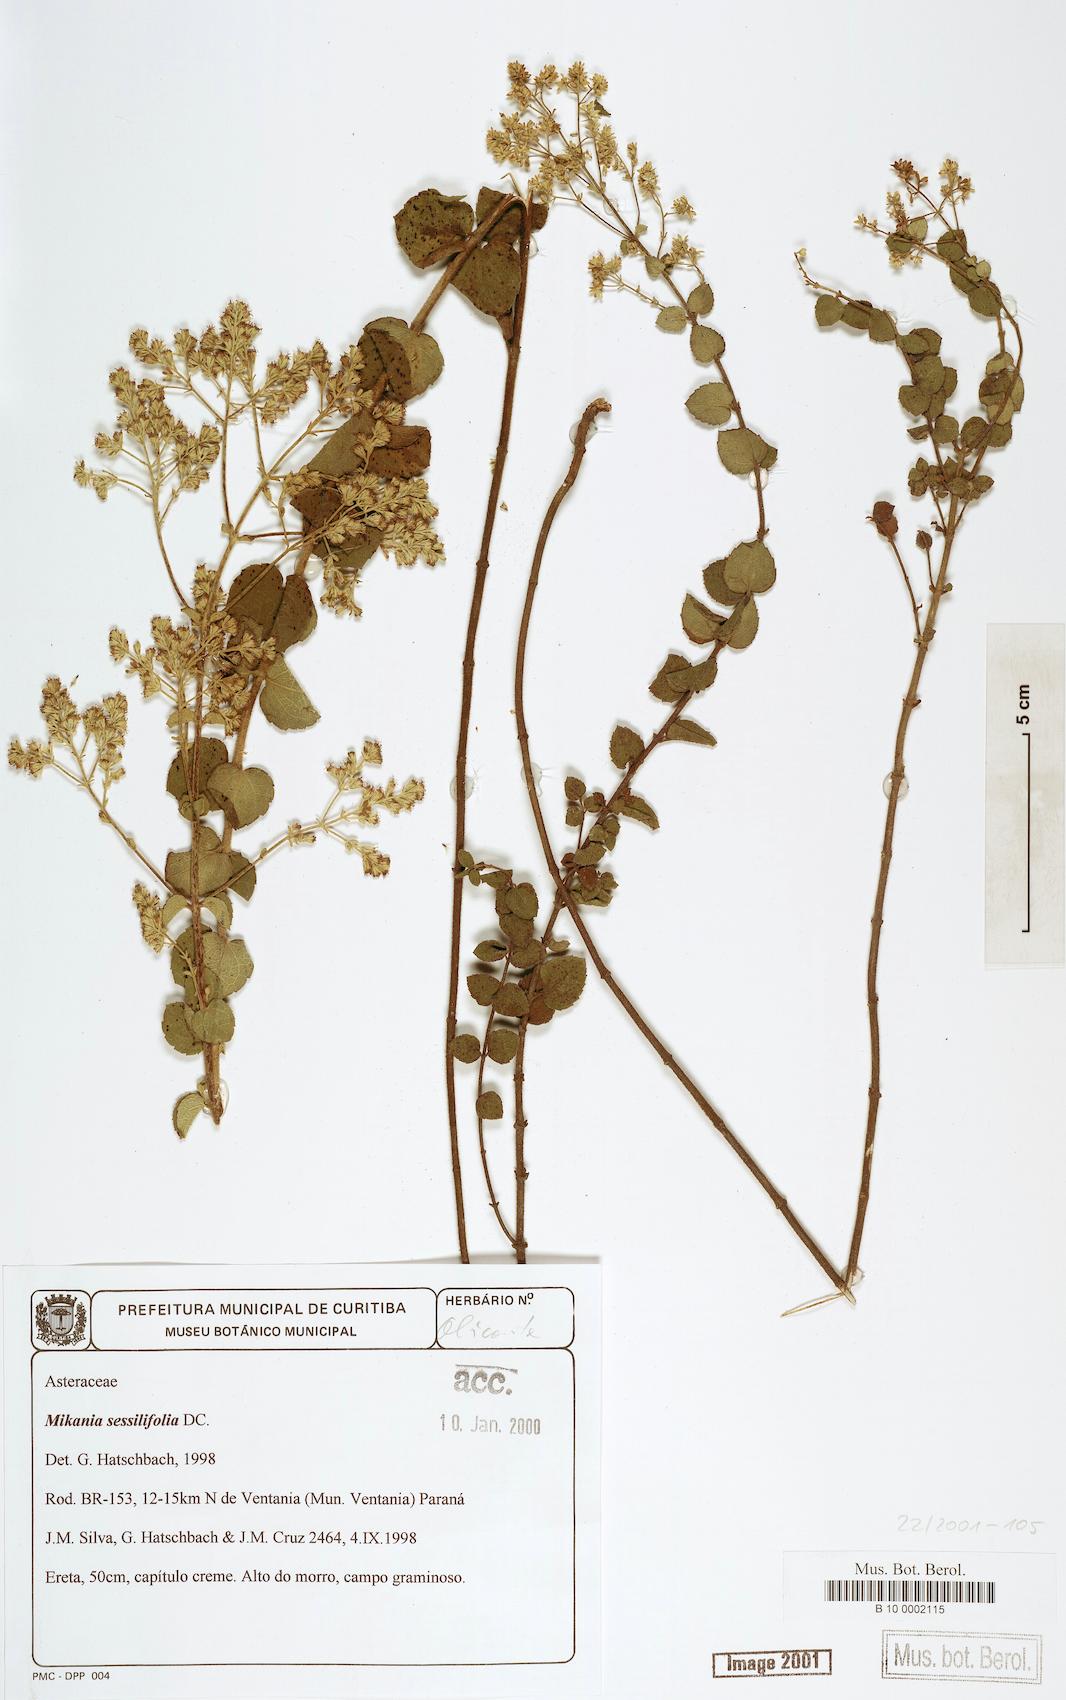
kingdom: Plantae
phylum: Tracheophyta
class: Magnoliopsida
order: Asterales
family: Asteraceae
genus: Mikania
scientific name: Mikania sessilifolia
